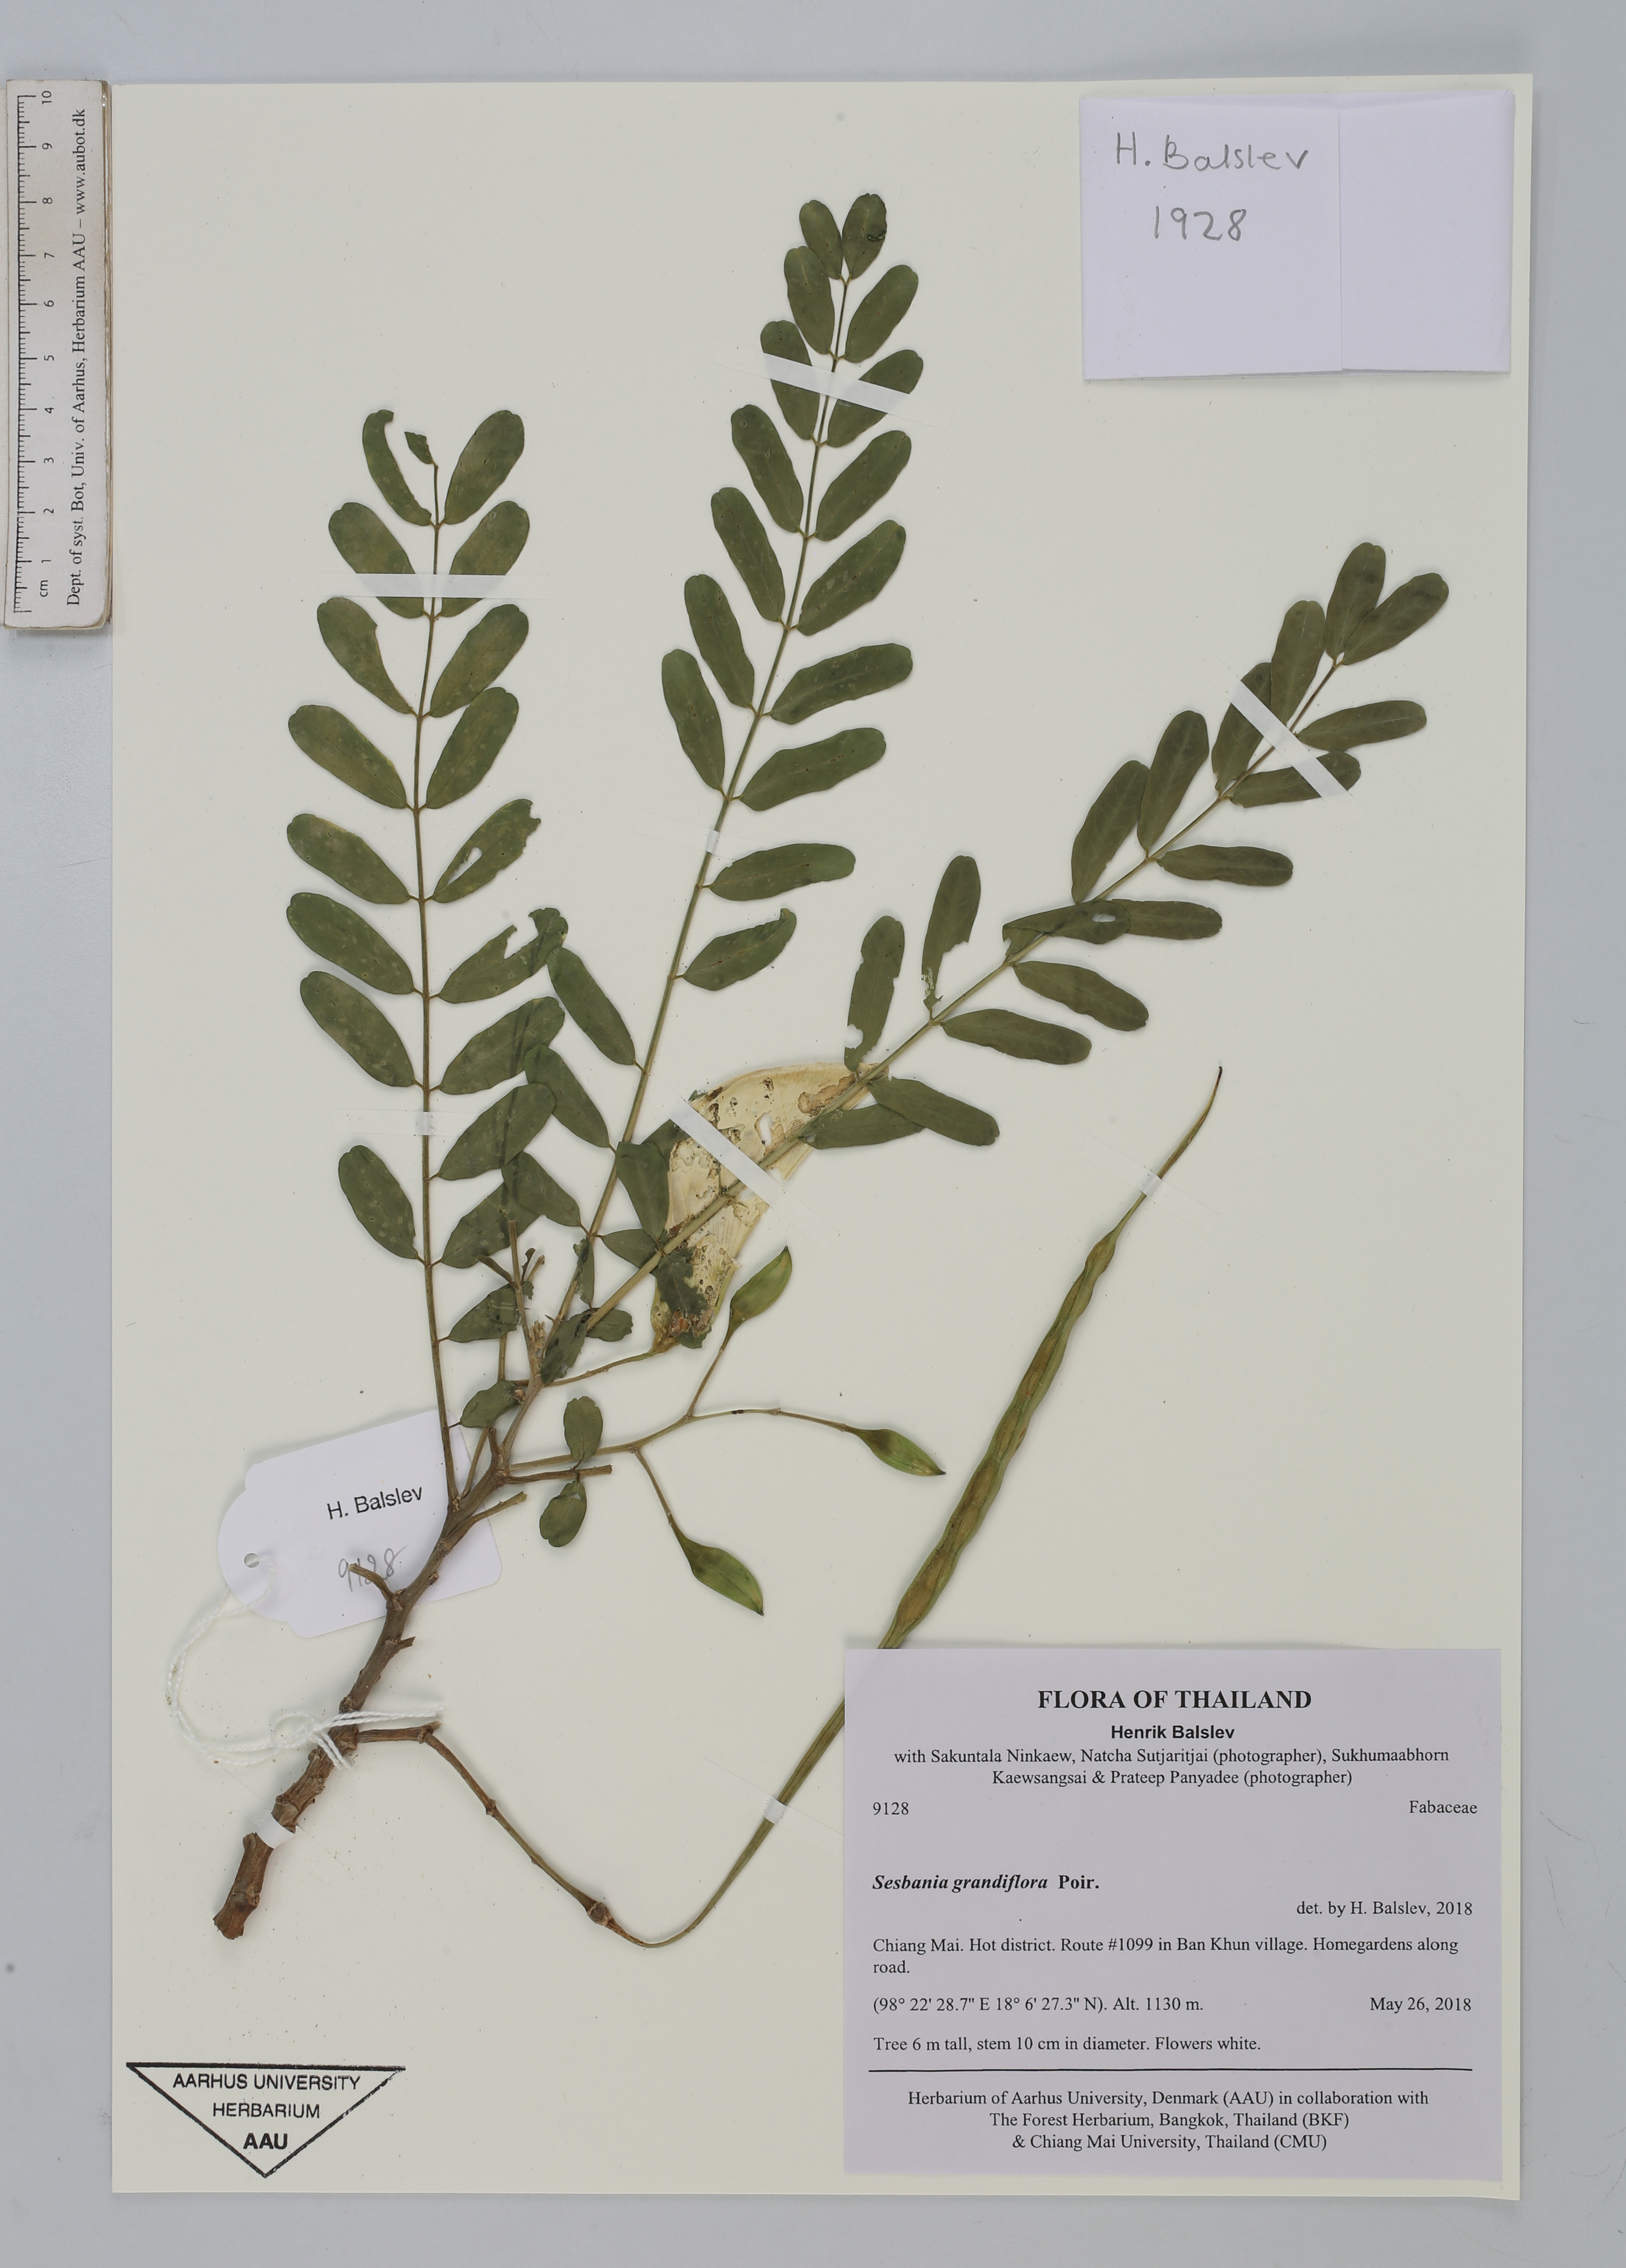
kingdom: Plantae
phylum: Tracheophyta
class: Magnoliopsida
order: Fabales
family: Fabaceae
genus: Sesbania
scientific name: Sesbania grandiflora
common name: Vegetable-hummingbird
